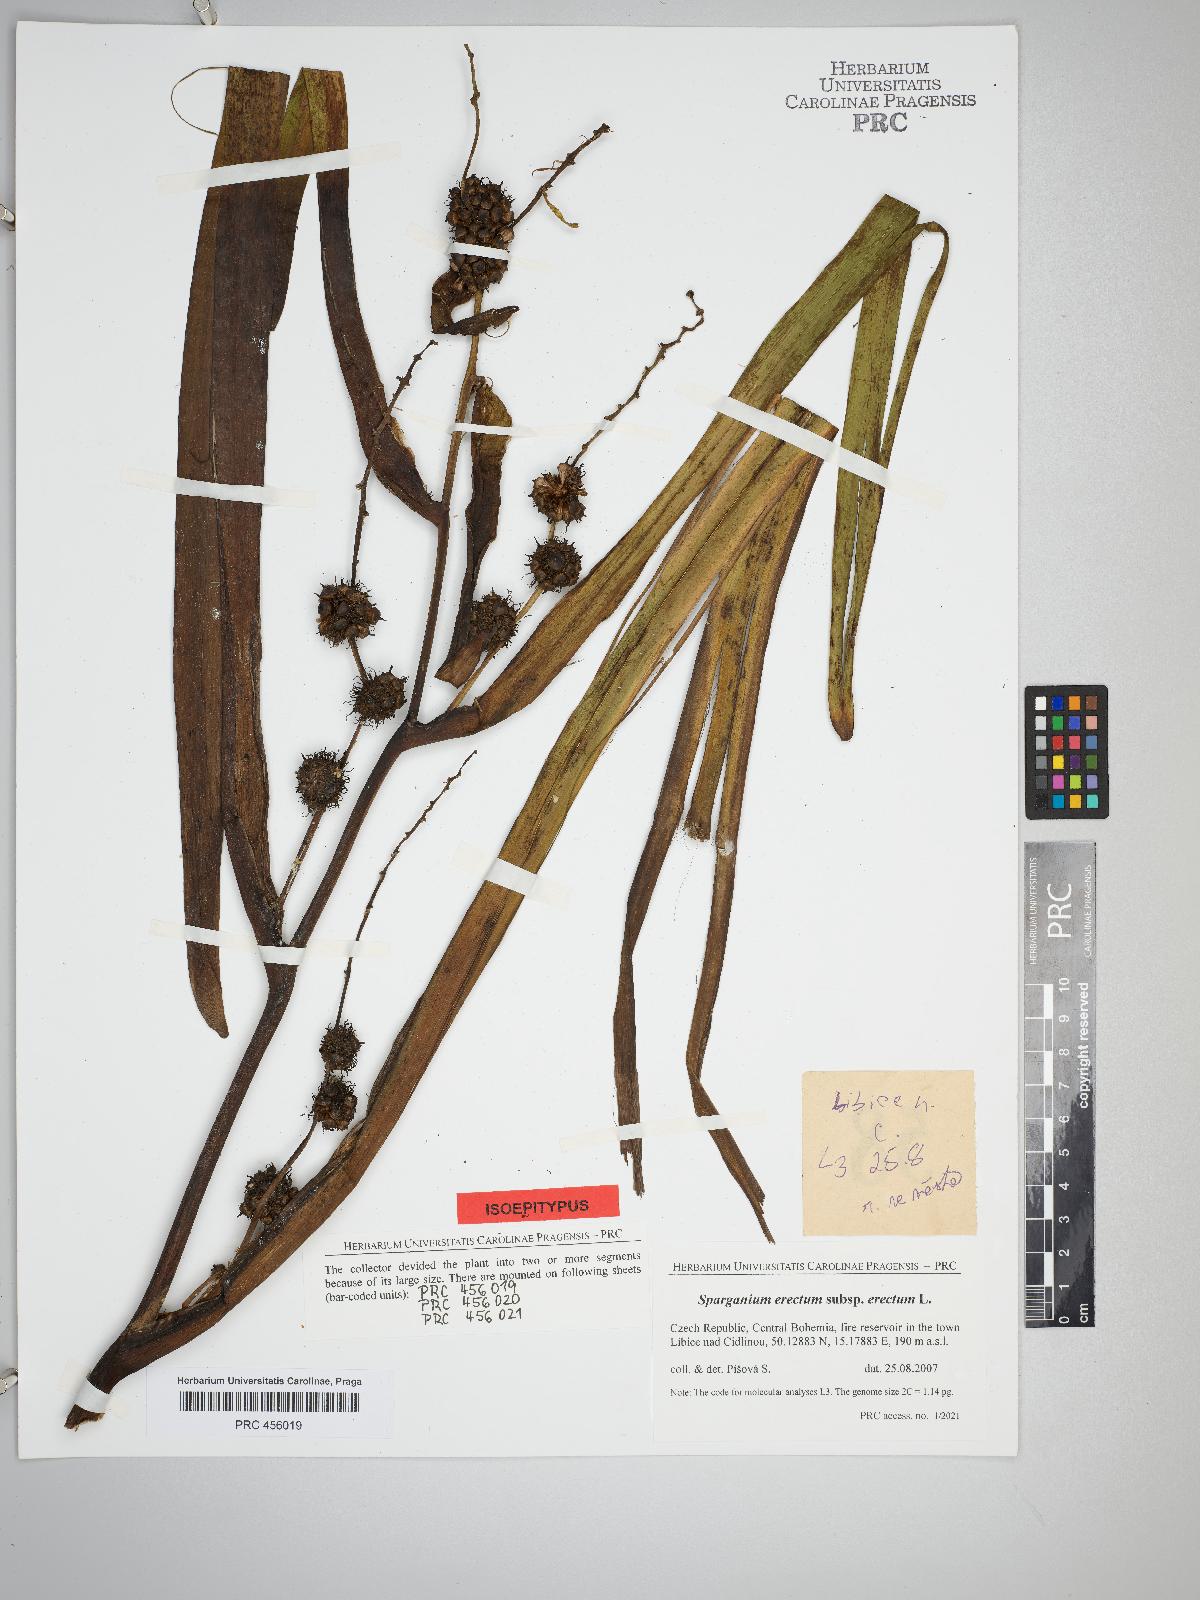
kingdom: Plantae
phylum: Tracheophyta
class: Liliopsida
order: Poales
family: Typhaceae
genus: Sparganium
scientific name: Sparganium erectum
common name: Branched bur-reed
